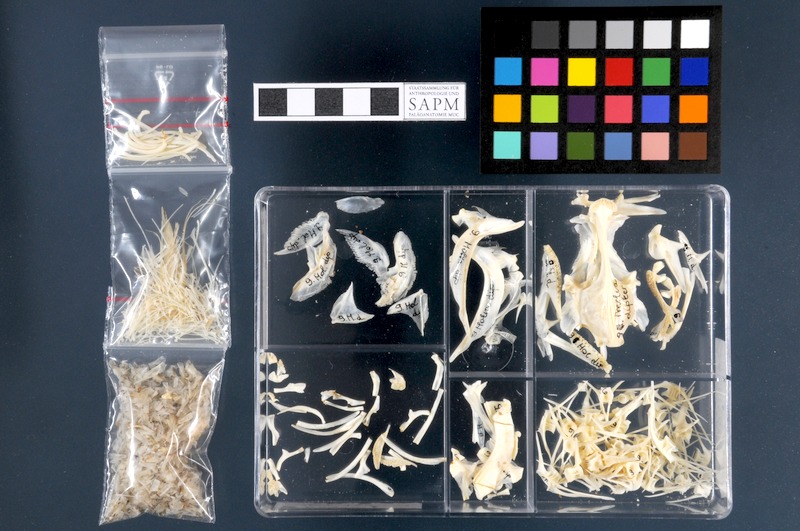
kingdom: Animalia
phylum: Chordata
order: Gadiformes
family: Lotidae
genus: Molva
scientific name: Molva dypterygia
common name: Blue ling
